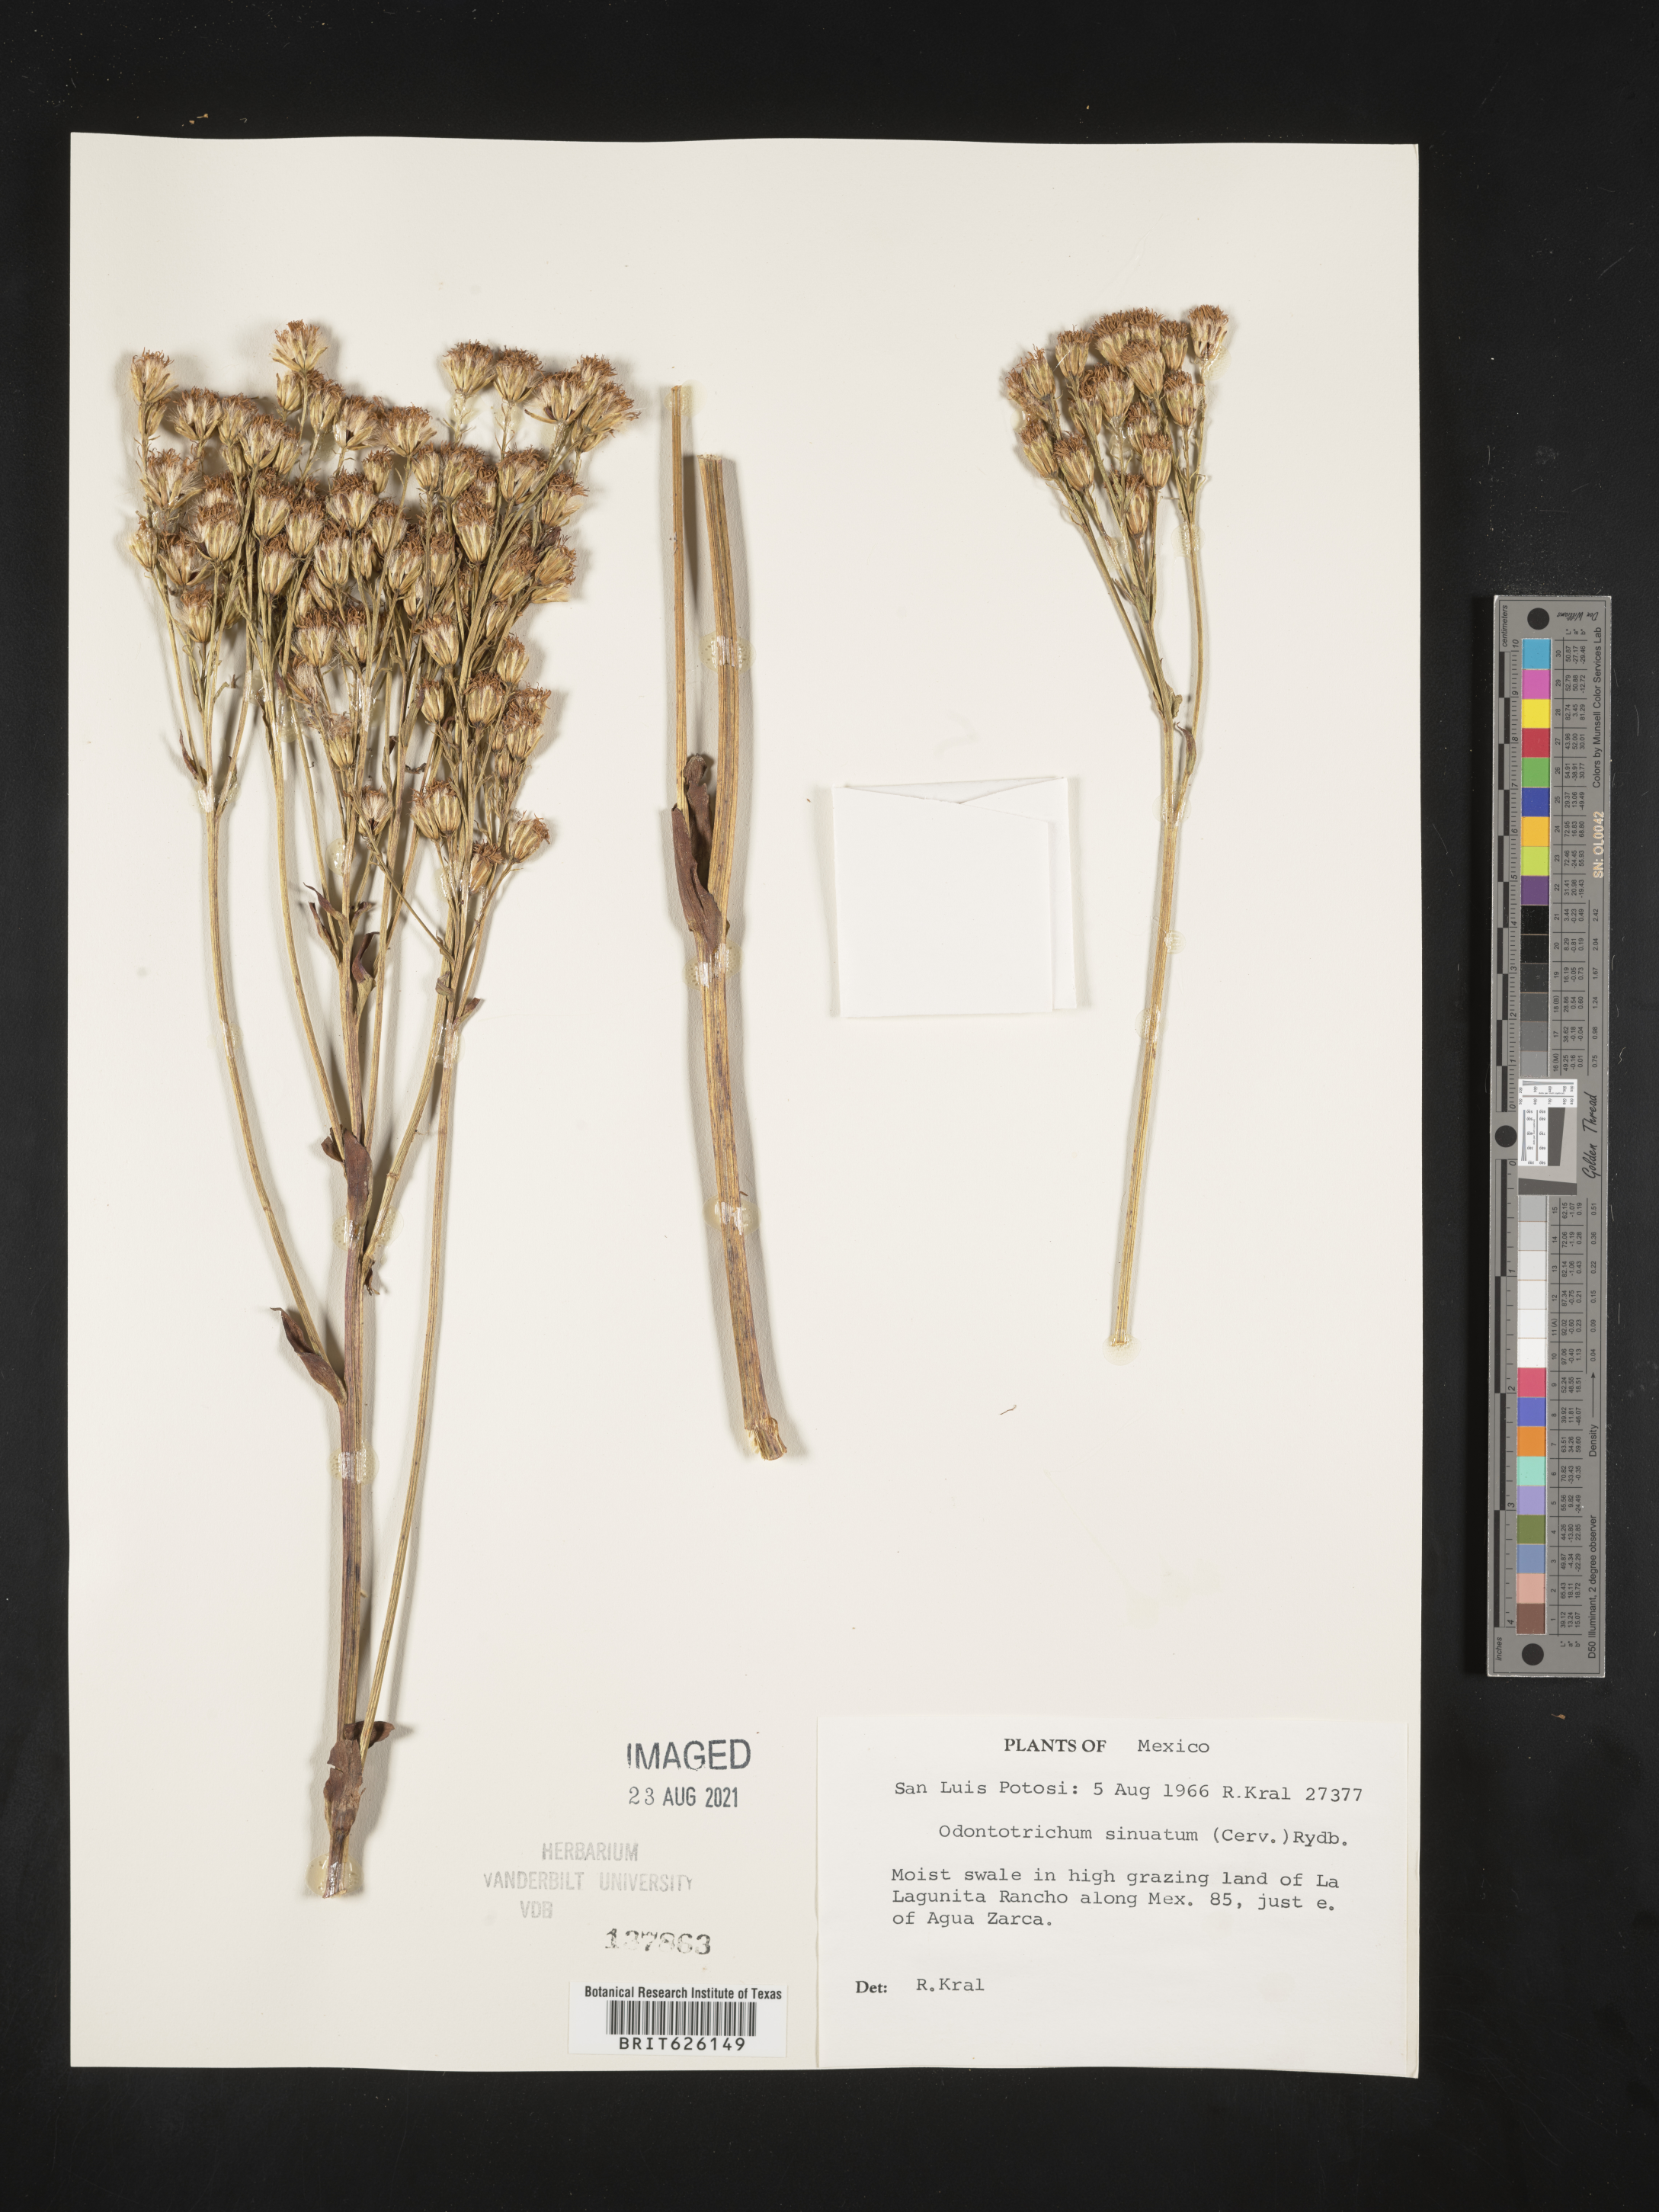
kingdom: Plantae
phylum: Tracheophyta
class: Magnoliopsida
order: Asterales
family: Asteraceae
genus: Psacalium
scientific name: Psacalium
